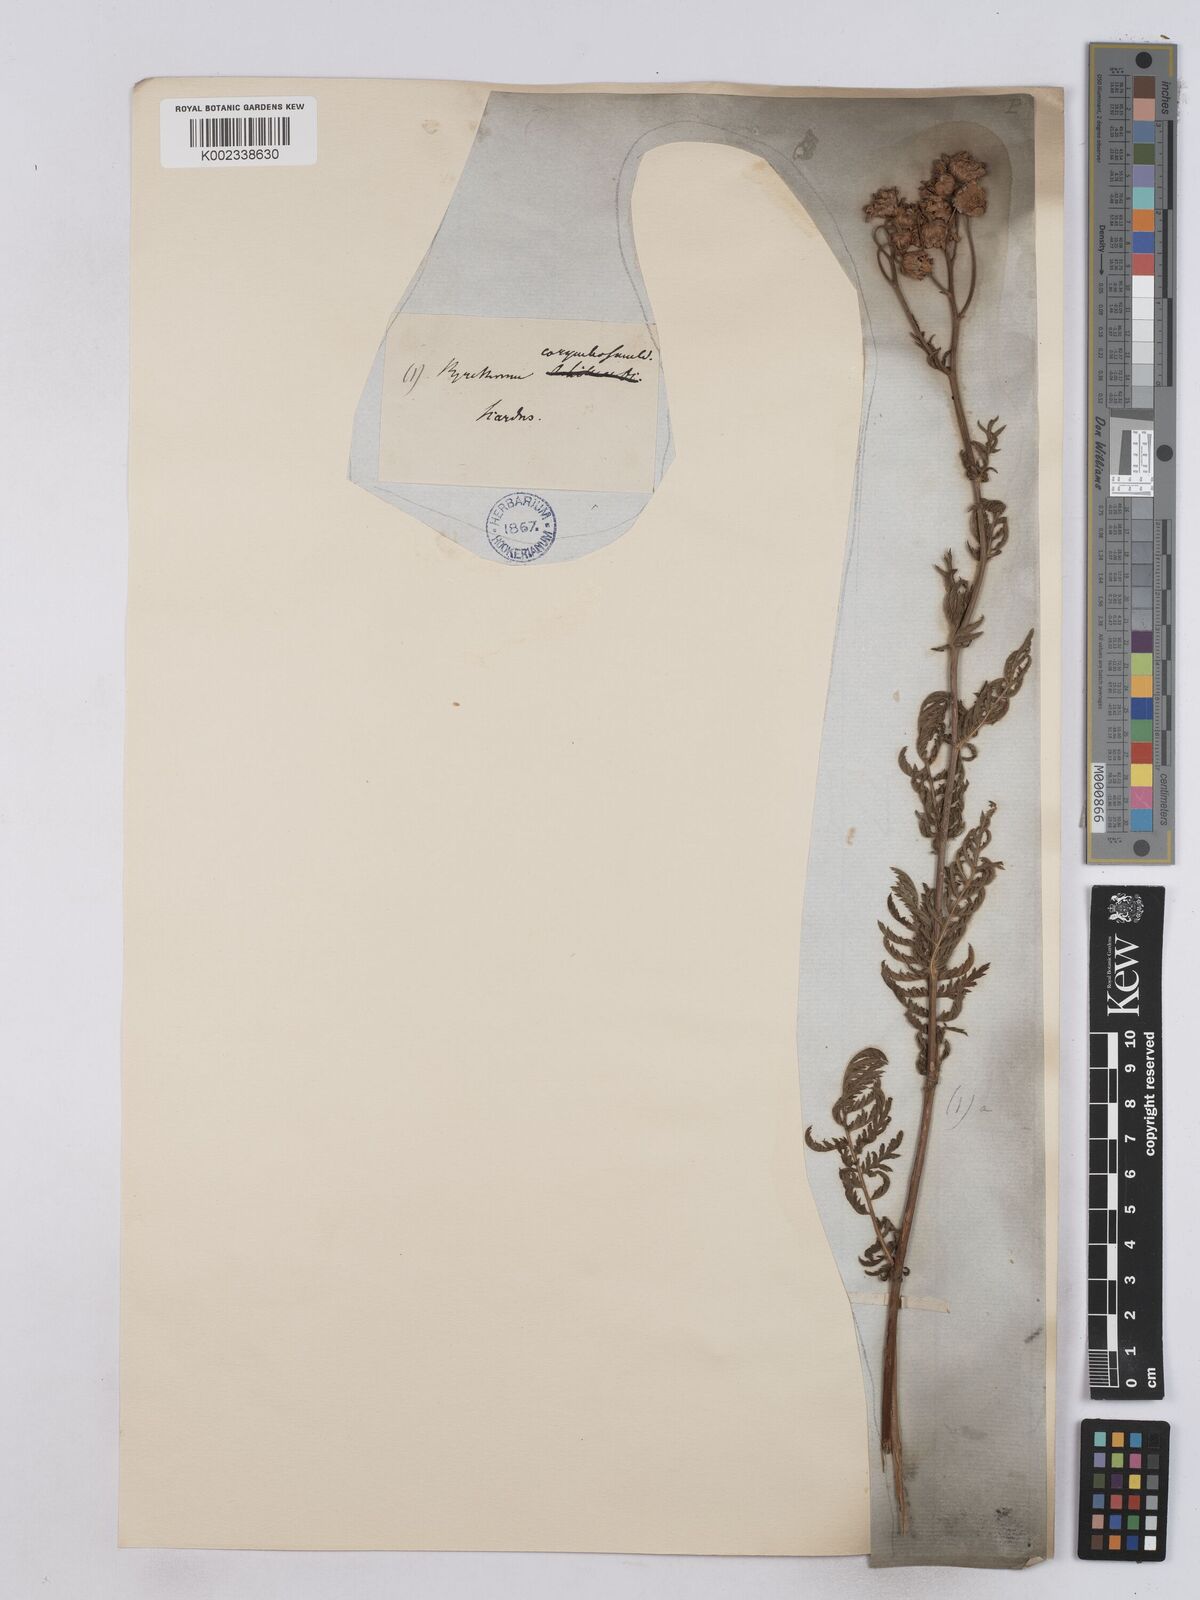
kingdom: Plantae
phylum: Tracheophyta
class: Magnoliopsida
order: Asterales
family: Asteraceae
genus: Tanacetum
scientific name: Tanacetum corymbosum
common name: Scentless feverfew
